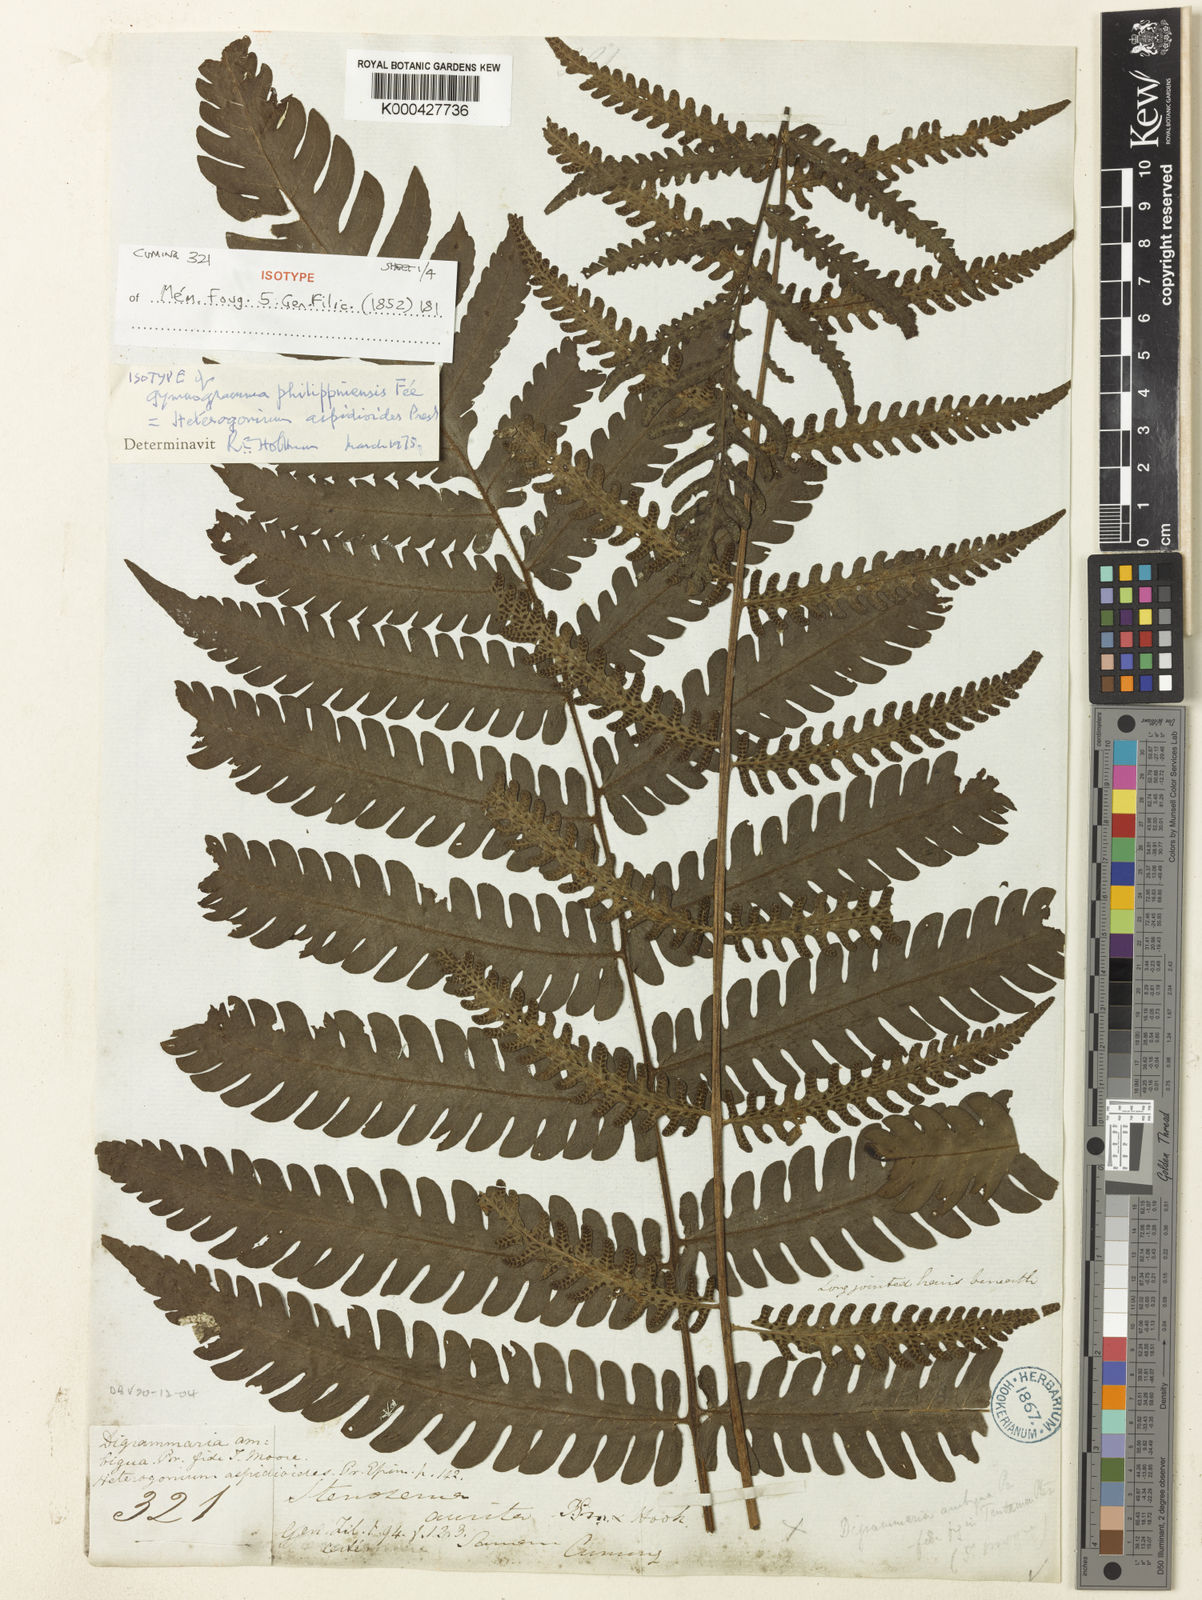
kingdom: Plantae
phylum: Tracheophyta
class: Polypodiopsida
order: Polypodiales
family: Tectariaceae
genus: Tectaria
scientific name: Tectaria aspidioides
